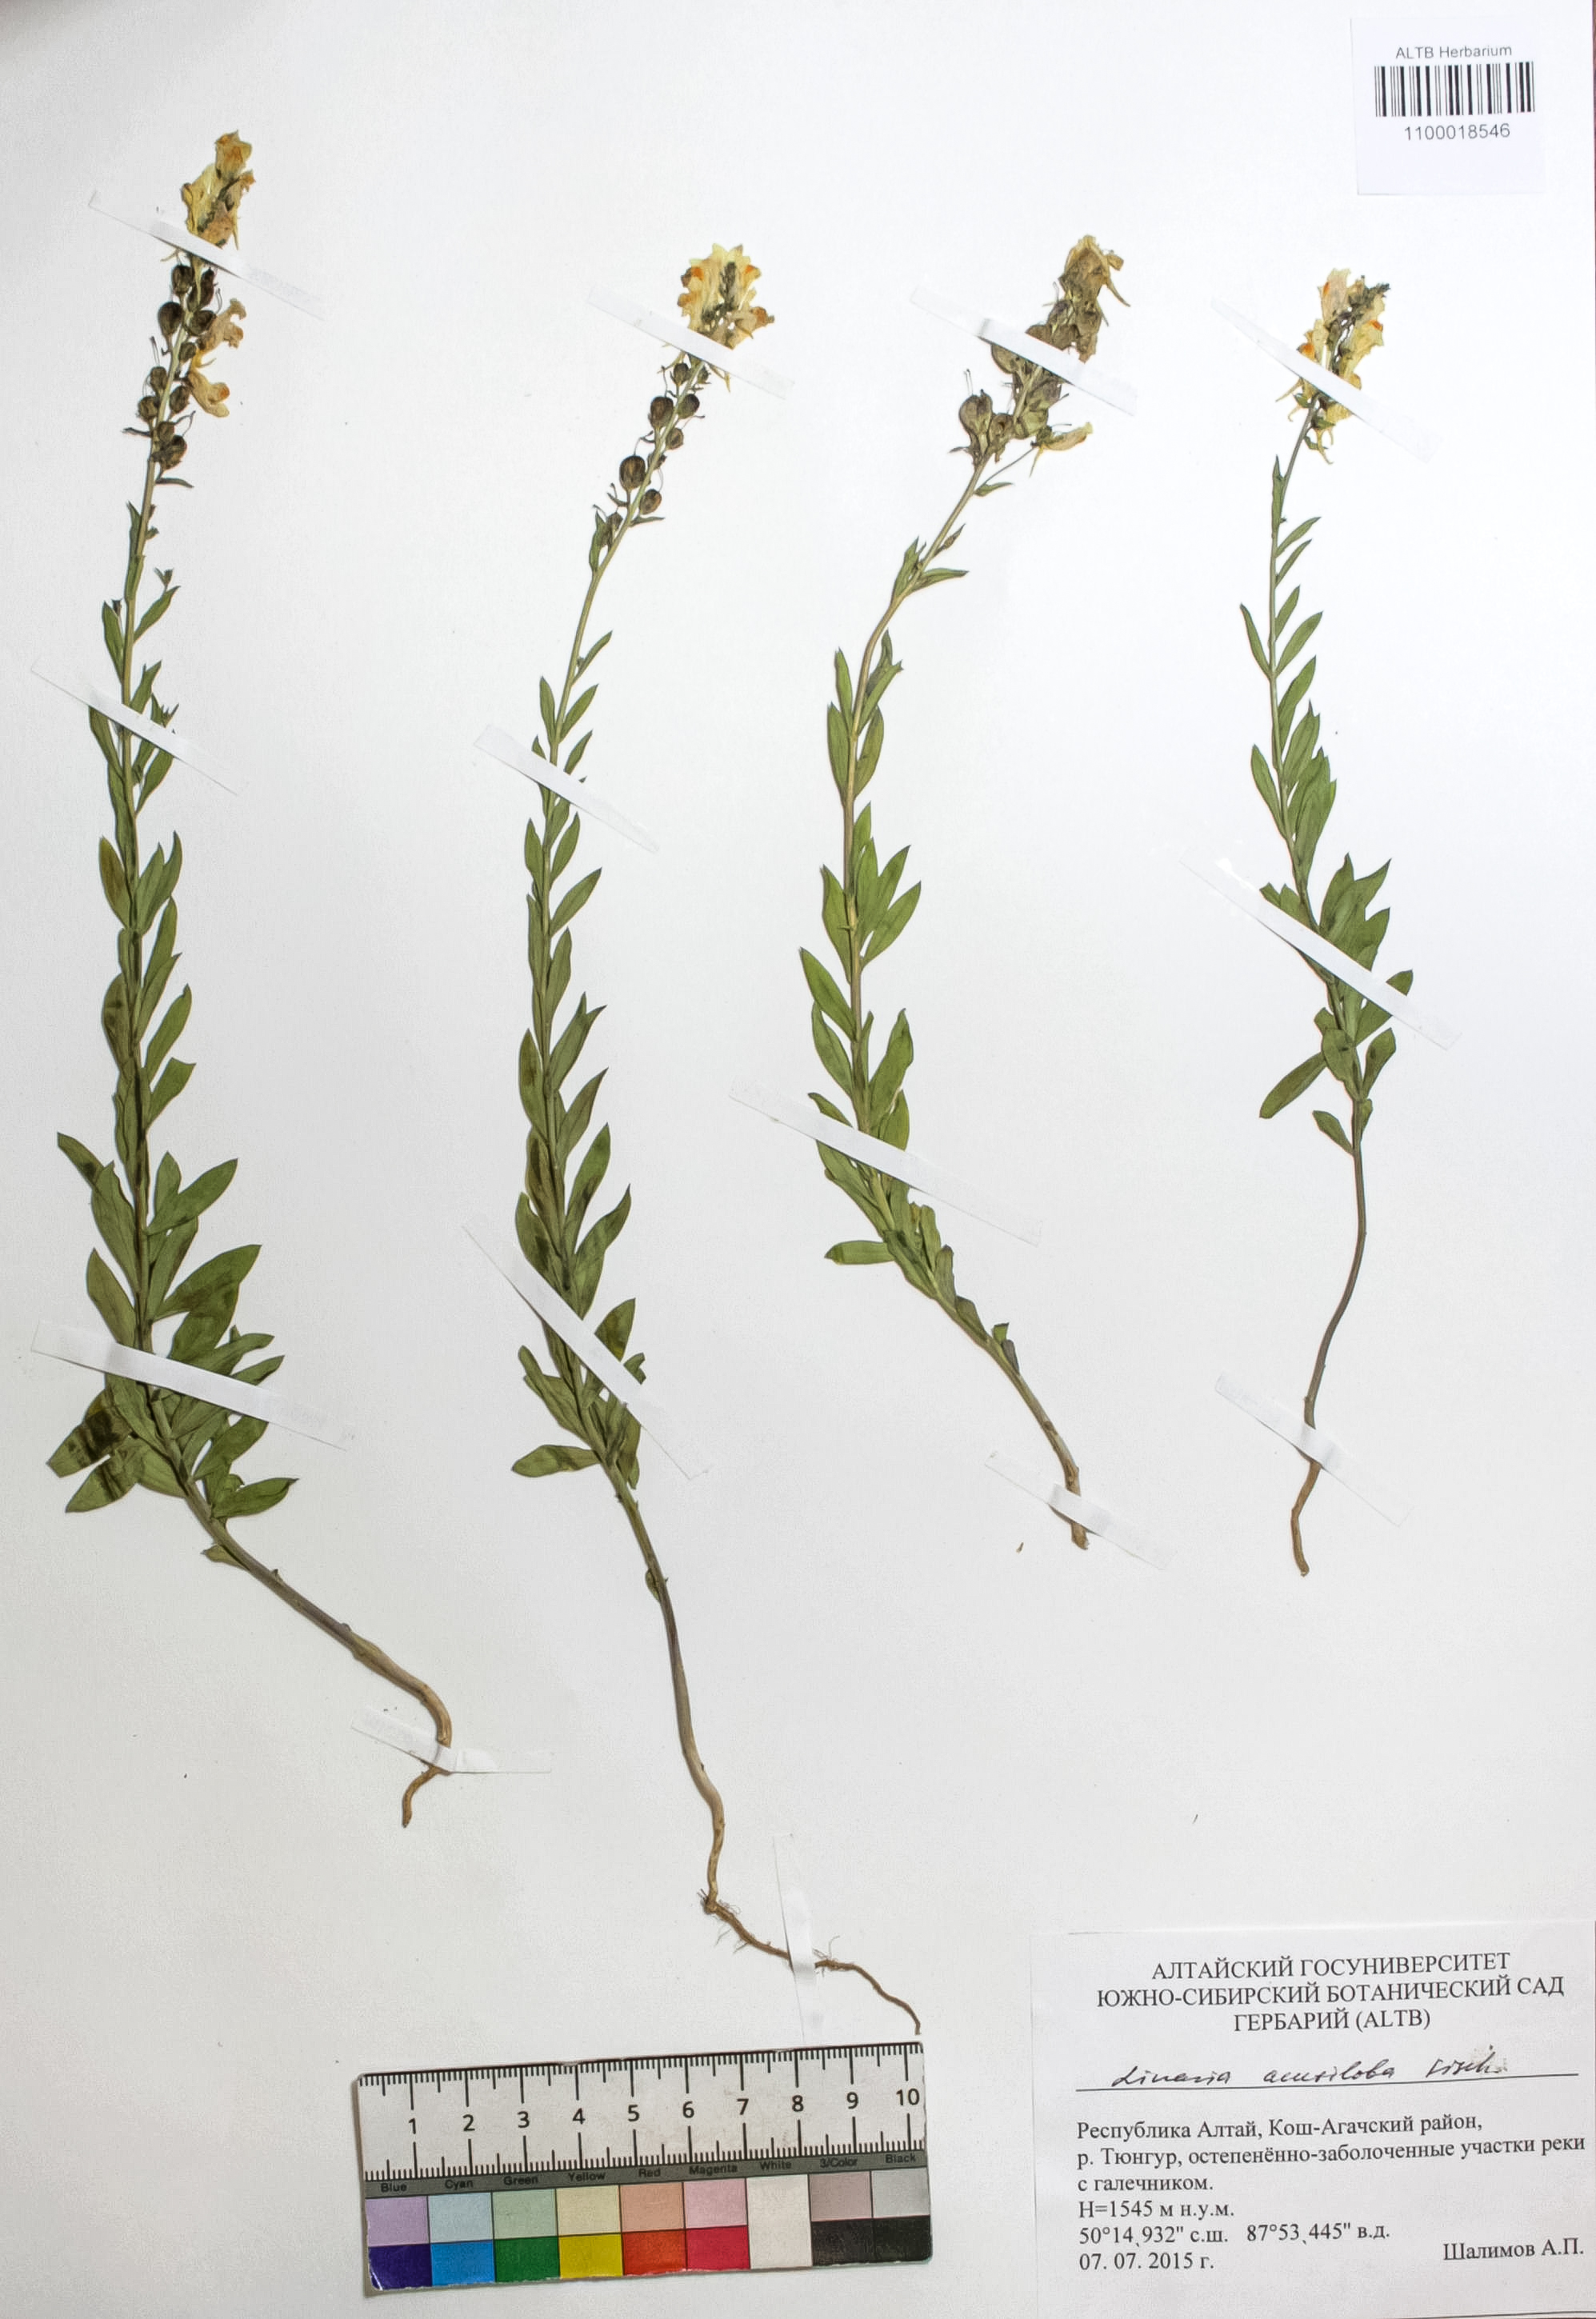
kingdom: Plantae
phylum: Tracheophyta
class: Magnoliopsida
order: Lamiales
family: Plantaginaceae
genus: Linaria
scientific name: Linaria acutiloba
